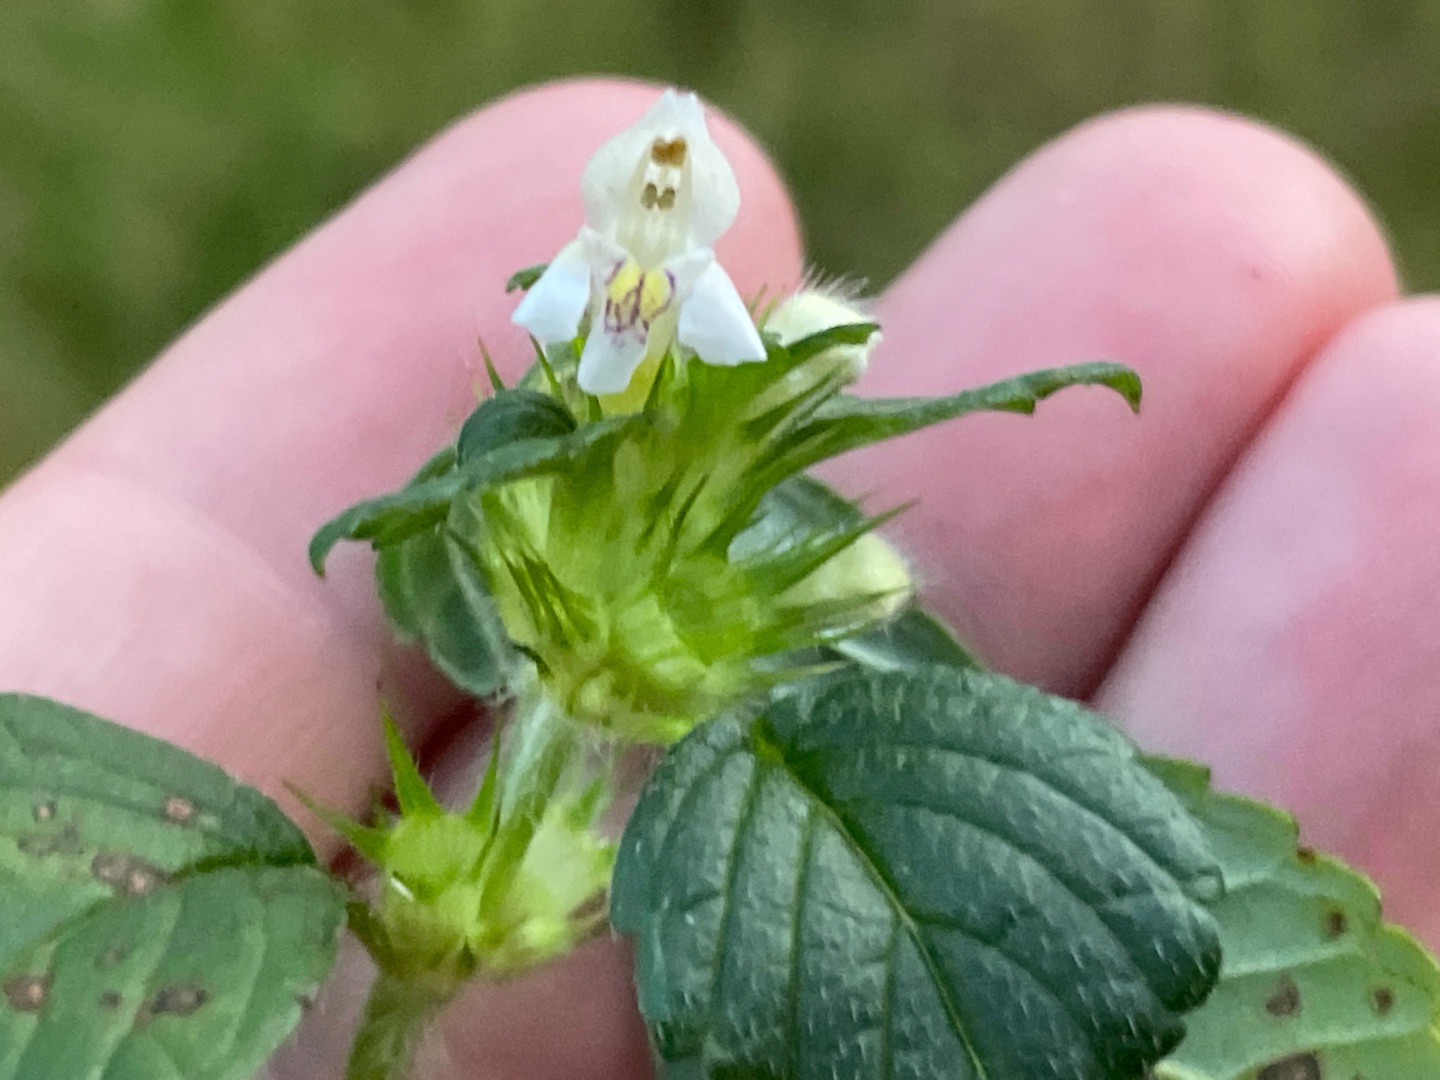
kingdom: Plantae
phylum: Tracheophyta
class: Magnoliopsida
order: Lamiales
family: Lamiaceae
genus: Galeopsis
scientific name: Galeopsis tetrahit
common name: Almindelig hanekro
